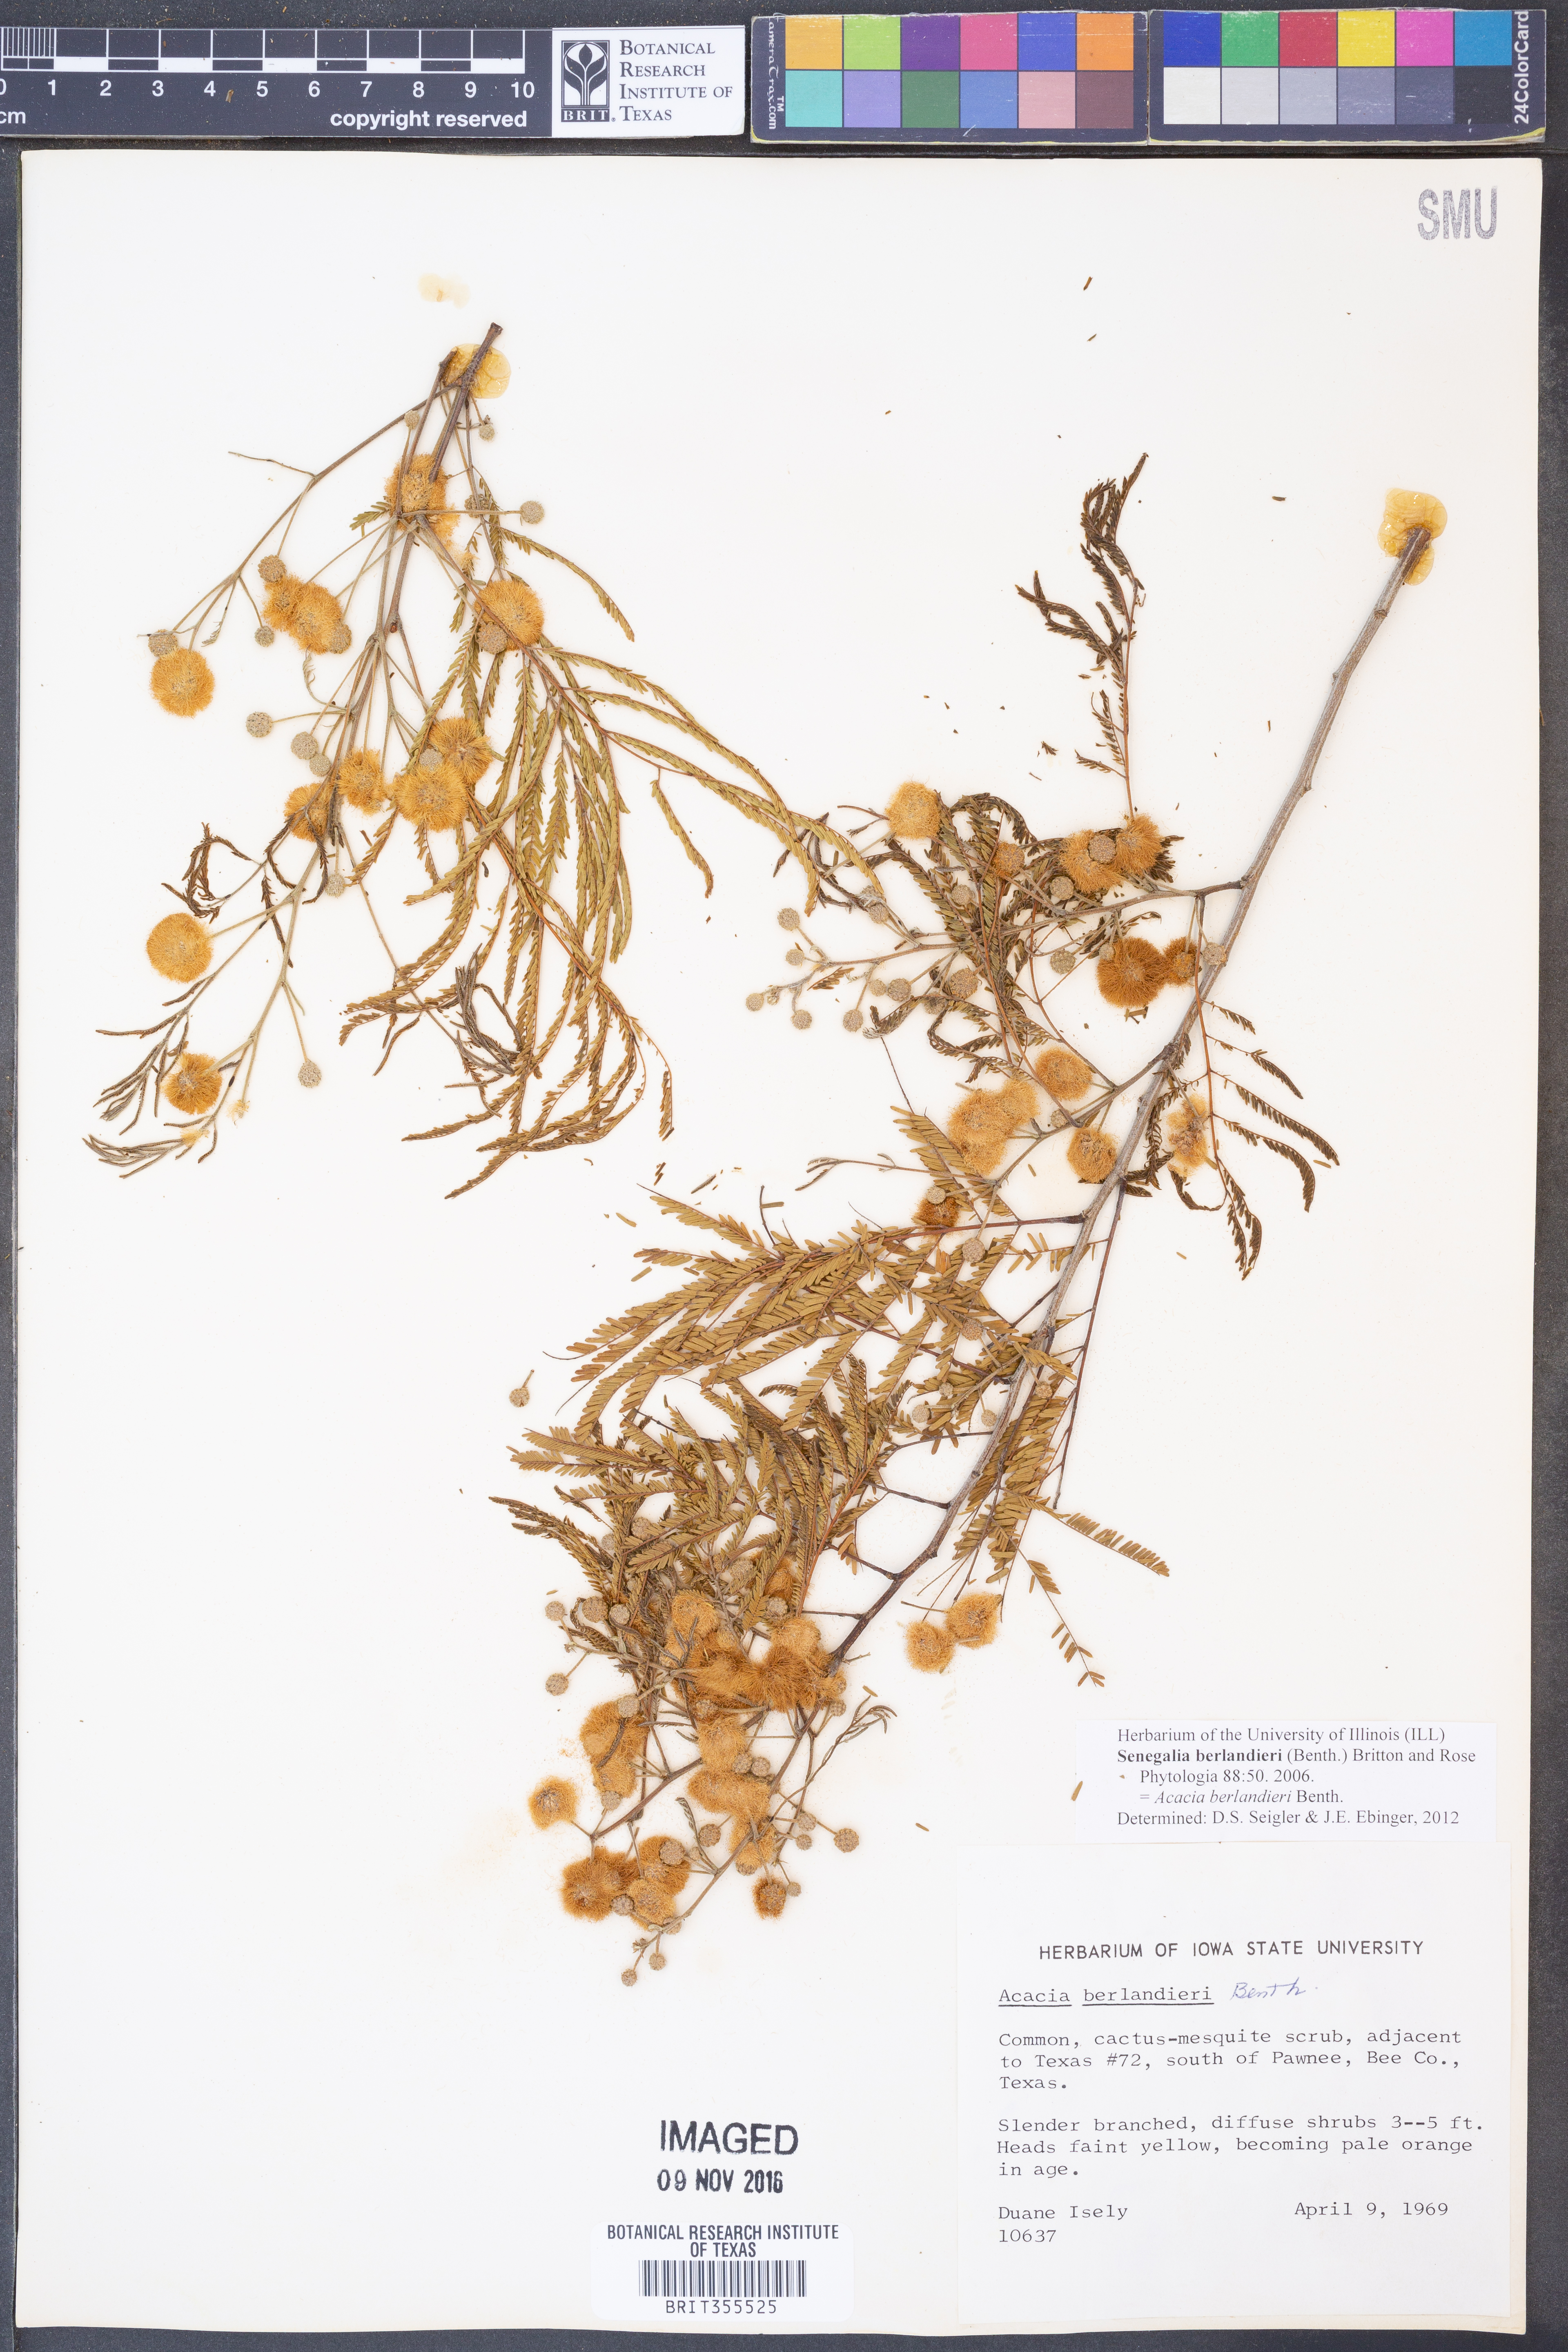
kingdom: Plantae
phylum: Tracheophyta
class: Magnoliopsida
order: Fabales
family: Fabaceae
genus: Senegalia
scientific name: Senegalia berlandieri
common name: Berlandier acacia
